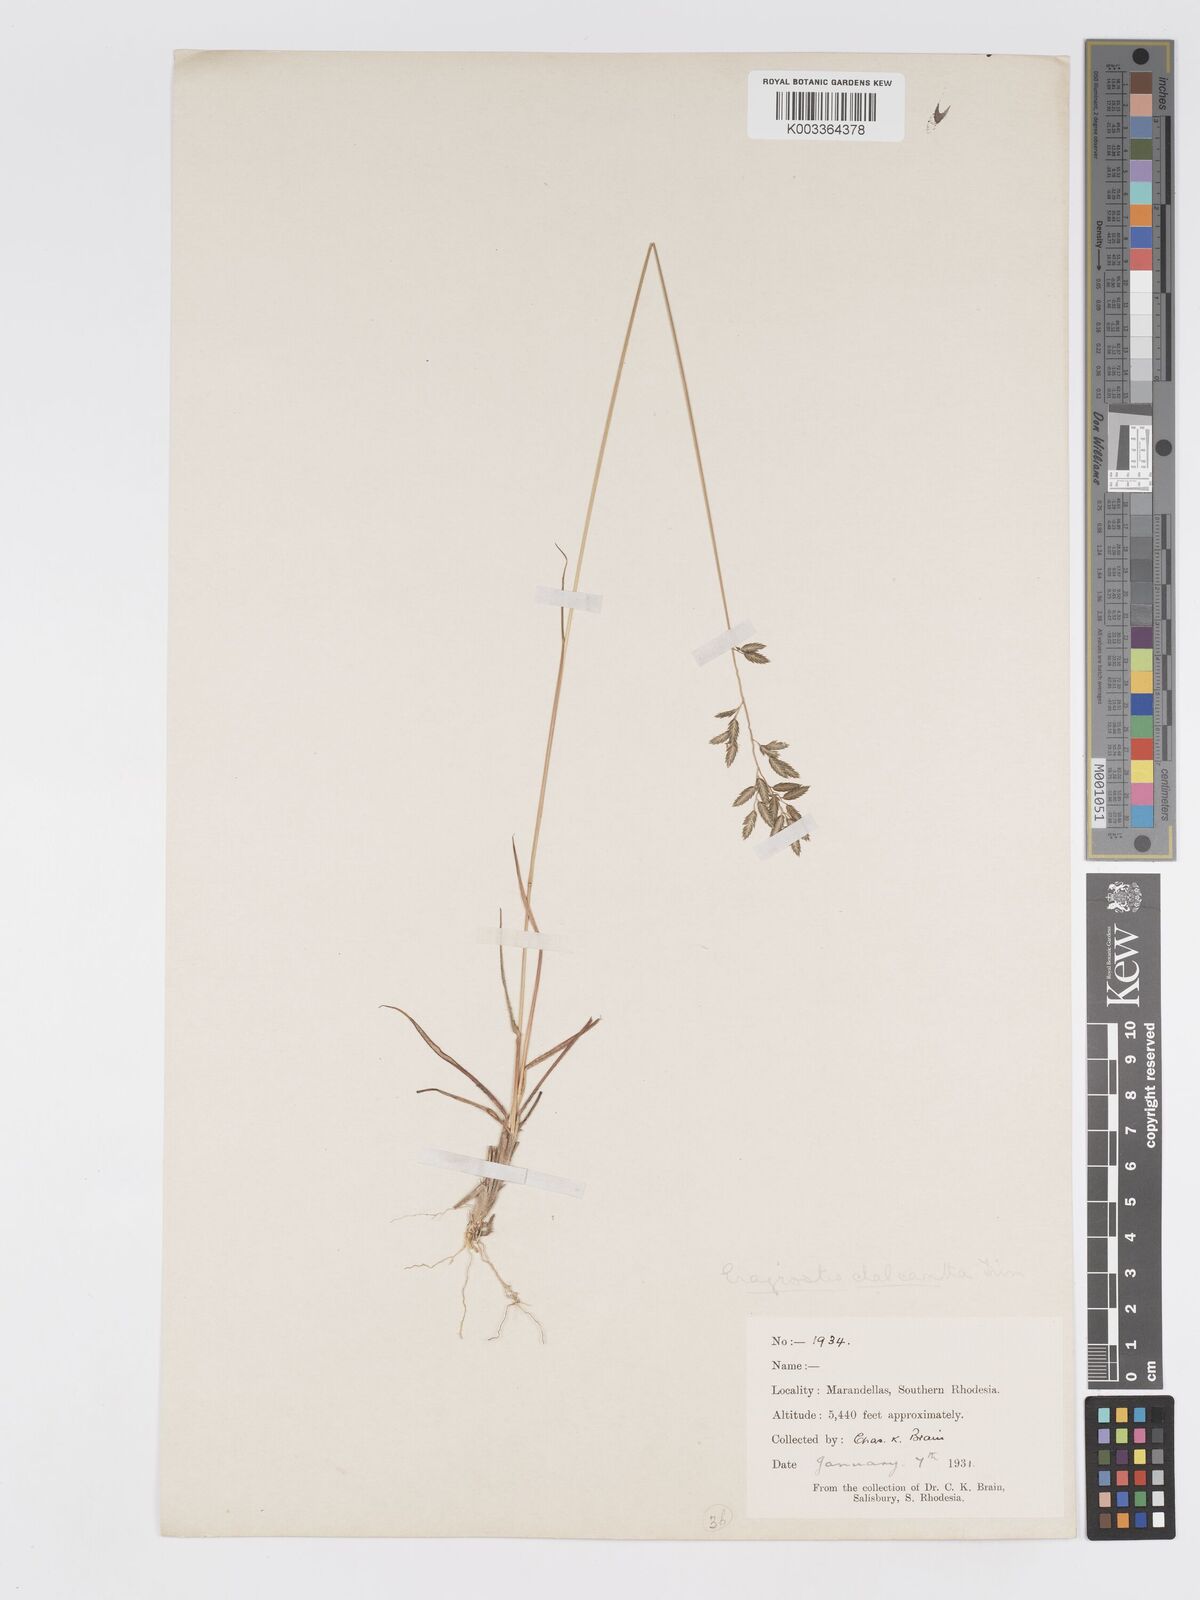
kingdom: Plantae
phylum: Tracheophyta
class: Liliopsida
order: Poales
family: Poaceae
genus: Eragrostis
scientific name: Eragrostis racemosa
